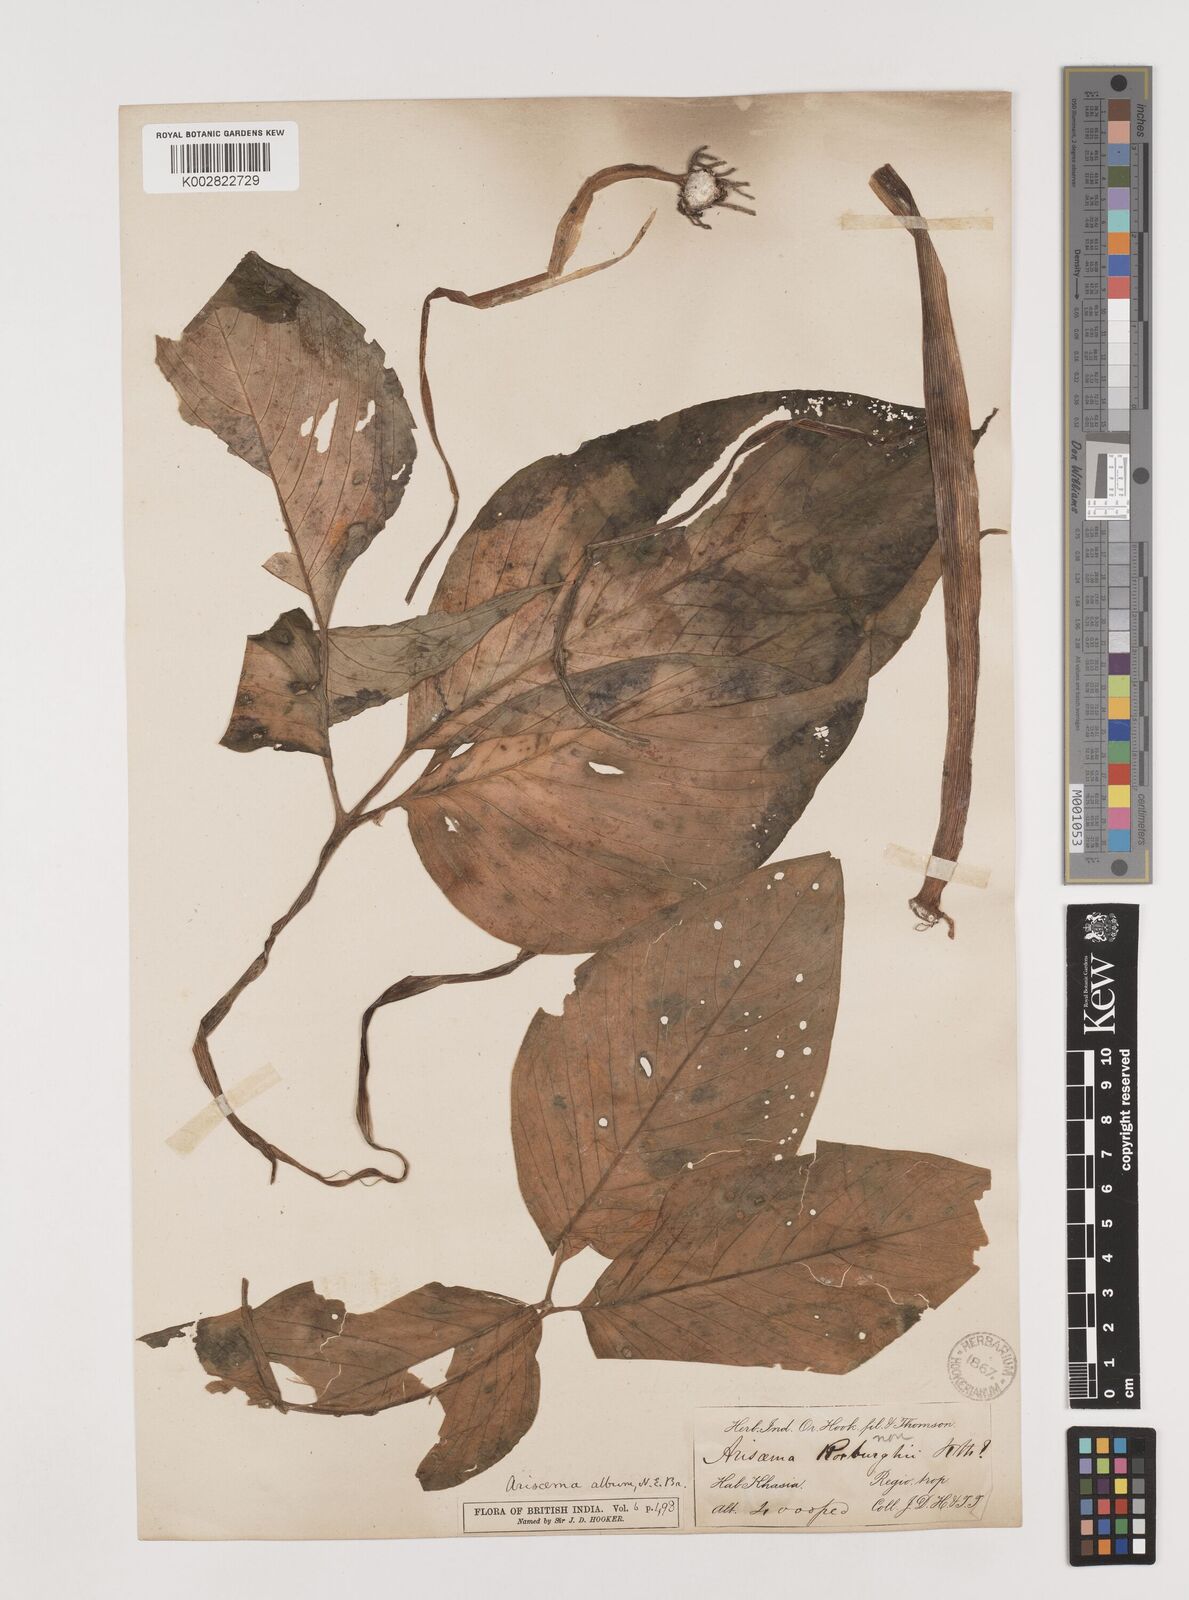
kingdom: Plantae
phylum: Tracheophyta
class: Liliopsida
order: Alismatales
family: Araceae
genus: Arisaema
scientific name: Arisaema album
